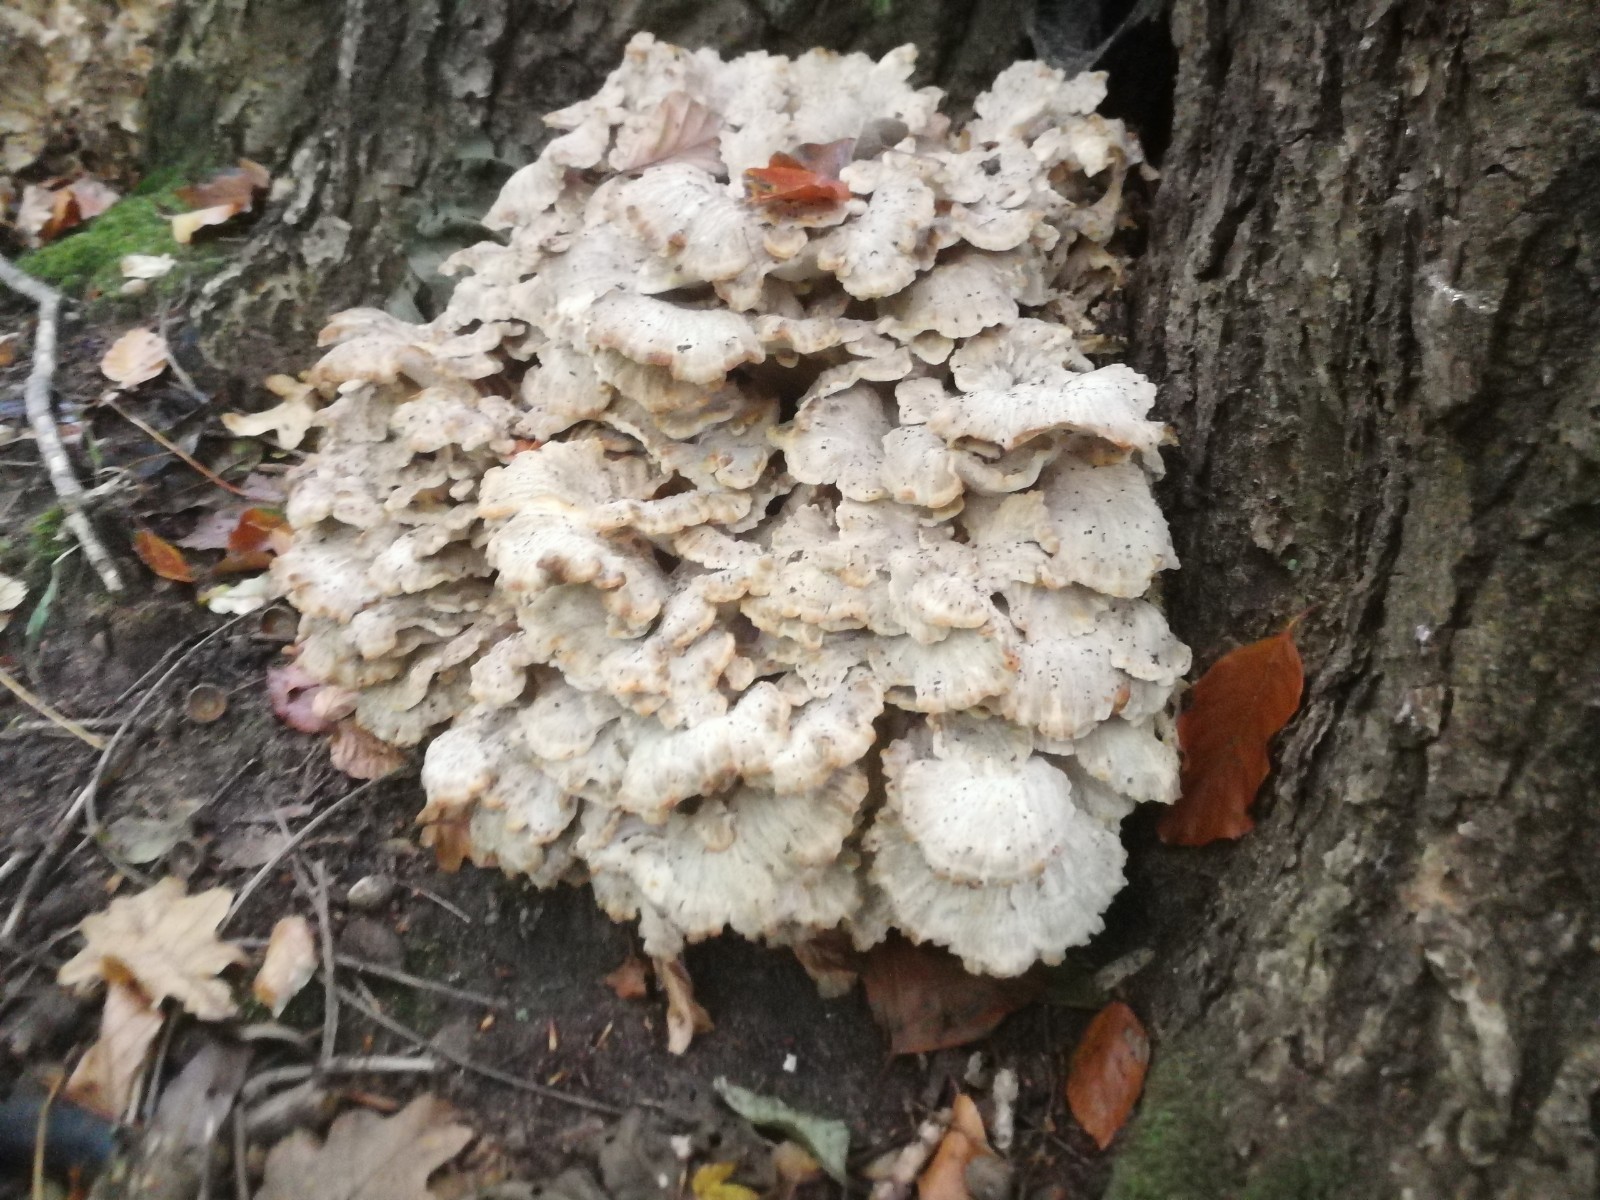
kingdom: Fungi
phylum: Basidiomycota
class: Agaricomycetes
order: Polyporales
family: Grifolaceae
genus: Grifola
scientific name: Grifola frondosa
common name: tueporesvamp
